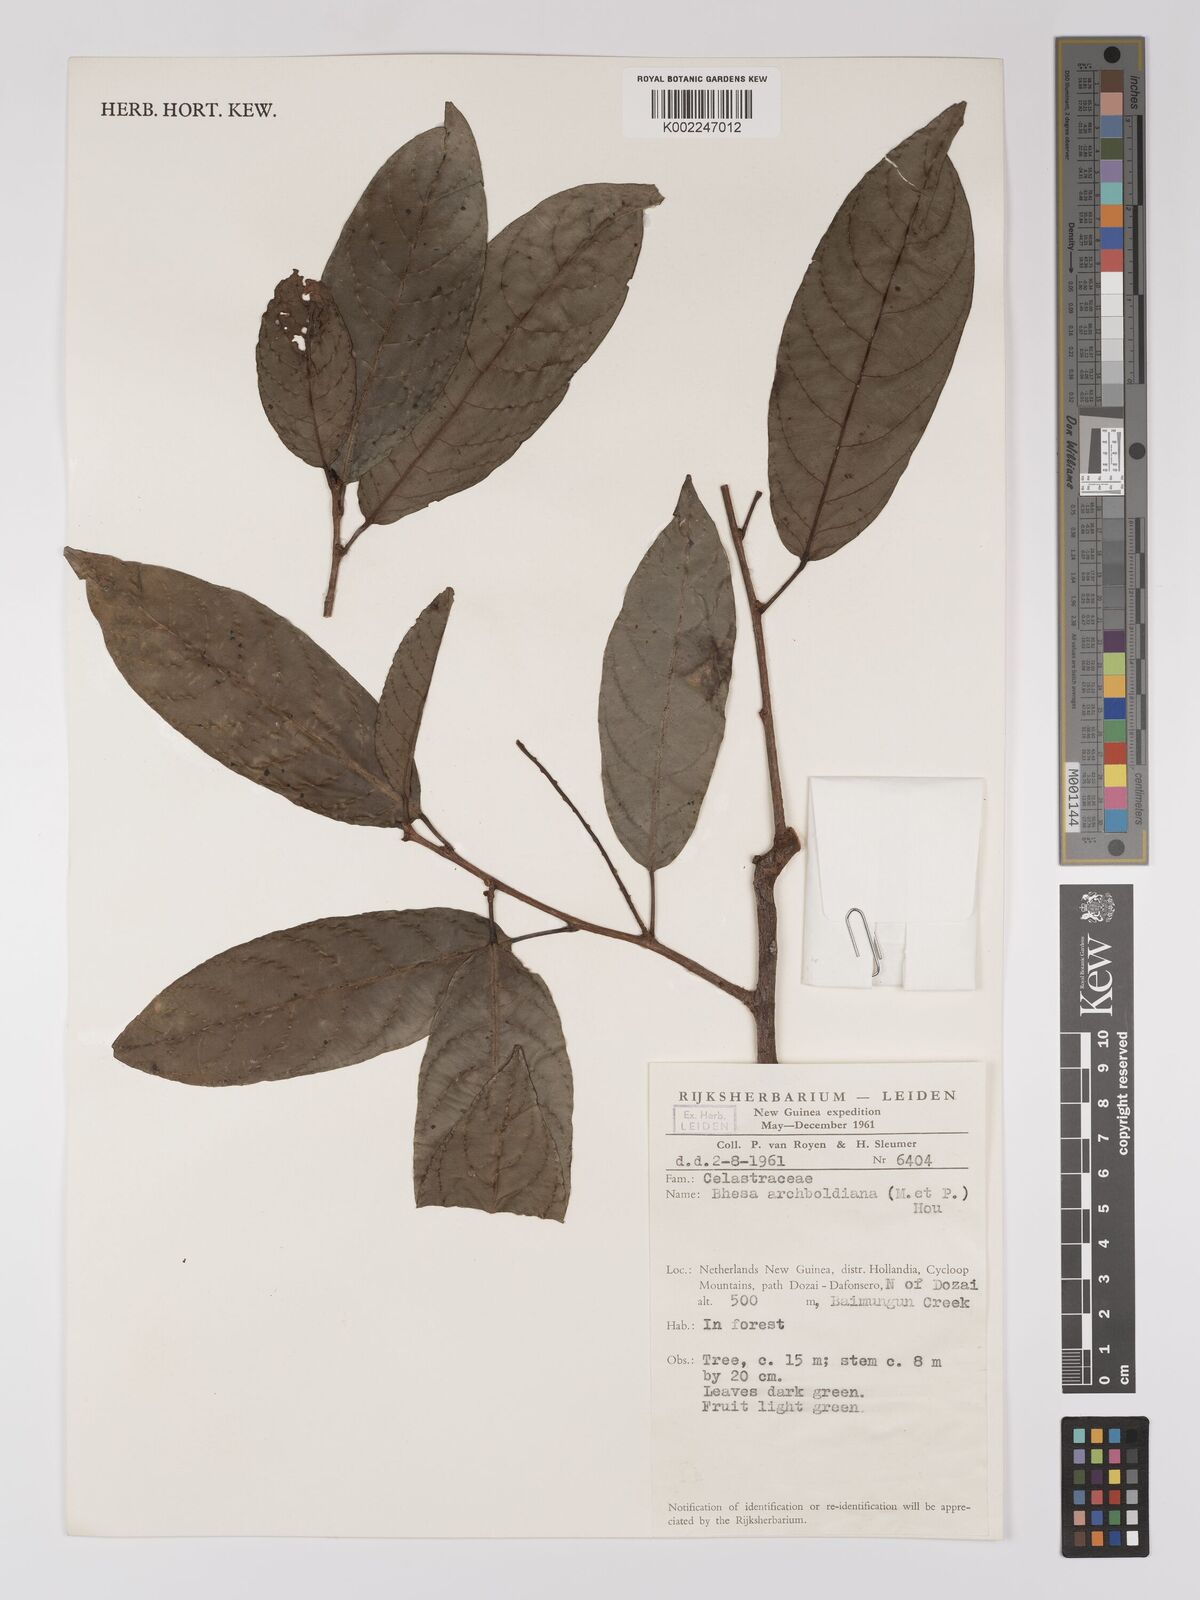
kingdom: Plantae
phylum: Tracheophyta
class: Magnoliopsida
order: Malpighiales
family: Centroplacaceae
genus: Bhesa
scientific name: Bhesa archboldiana
